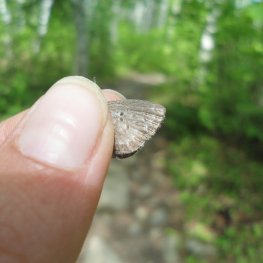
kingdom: Animalia
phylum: Arthropoda
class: Insecta
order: Lepidoptera
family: Lycaenidae
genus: Celastrina
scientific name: Celastrina lucia
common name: Northern Spring Azure
